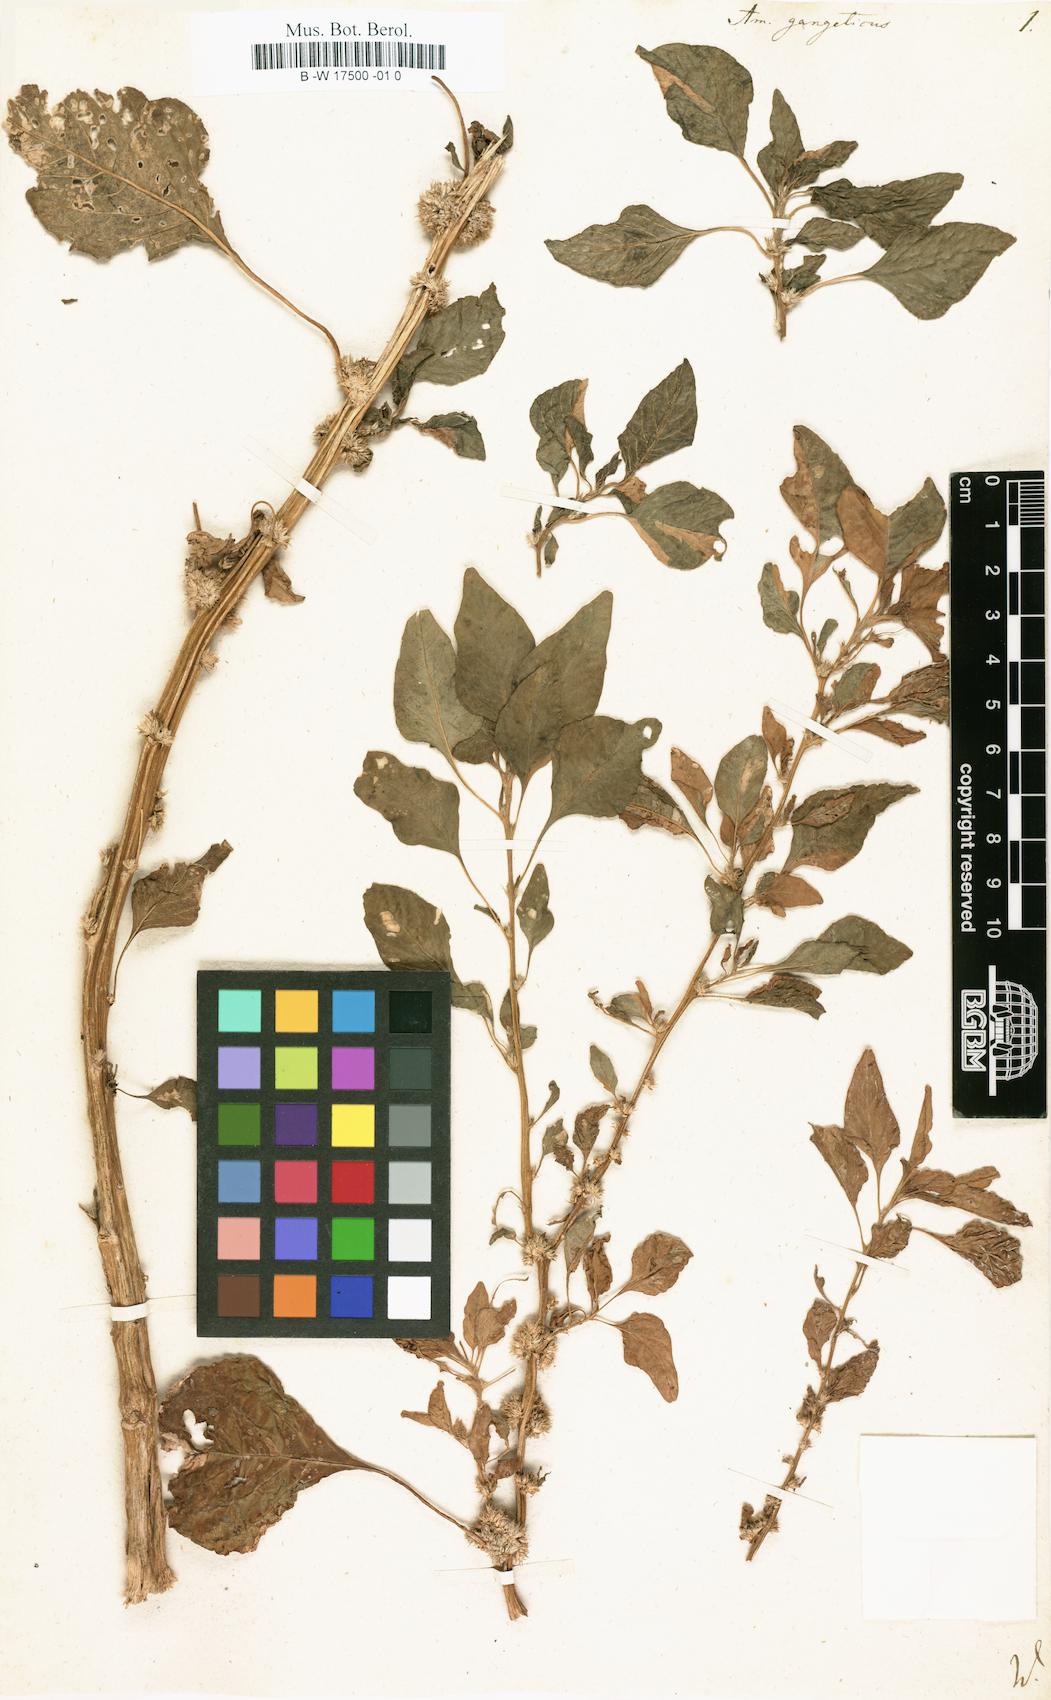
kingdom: Plantae
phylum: Tracheophyta
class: Magnoliopsida
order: Caryophyllales
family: Amaranthaceae
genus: Amaranthus
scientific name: Amaranthus tricolor
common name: Joseph's-coat
